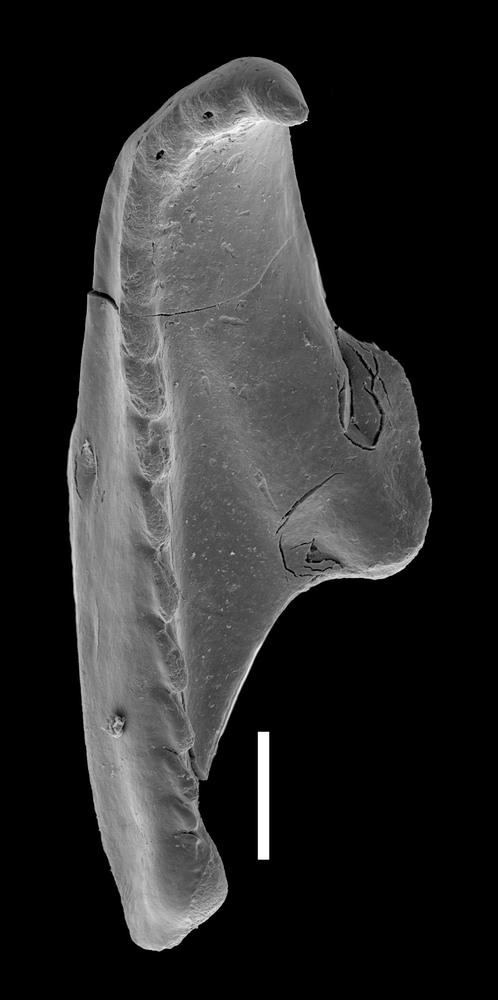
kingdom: Animalia
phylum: Annelida
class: Polychaeta
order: Eunicida
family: Polychaetaspidae
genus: Oenonites
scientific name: Oenonites
